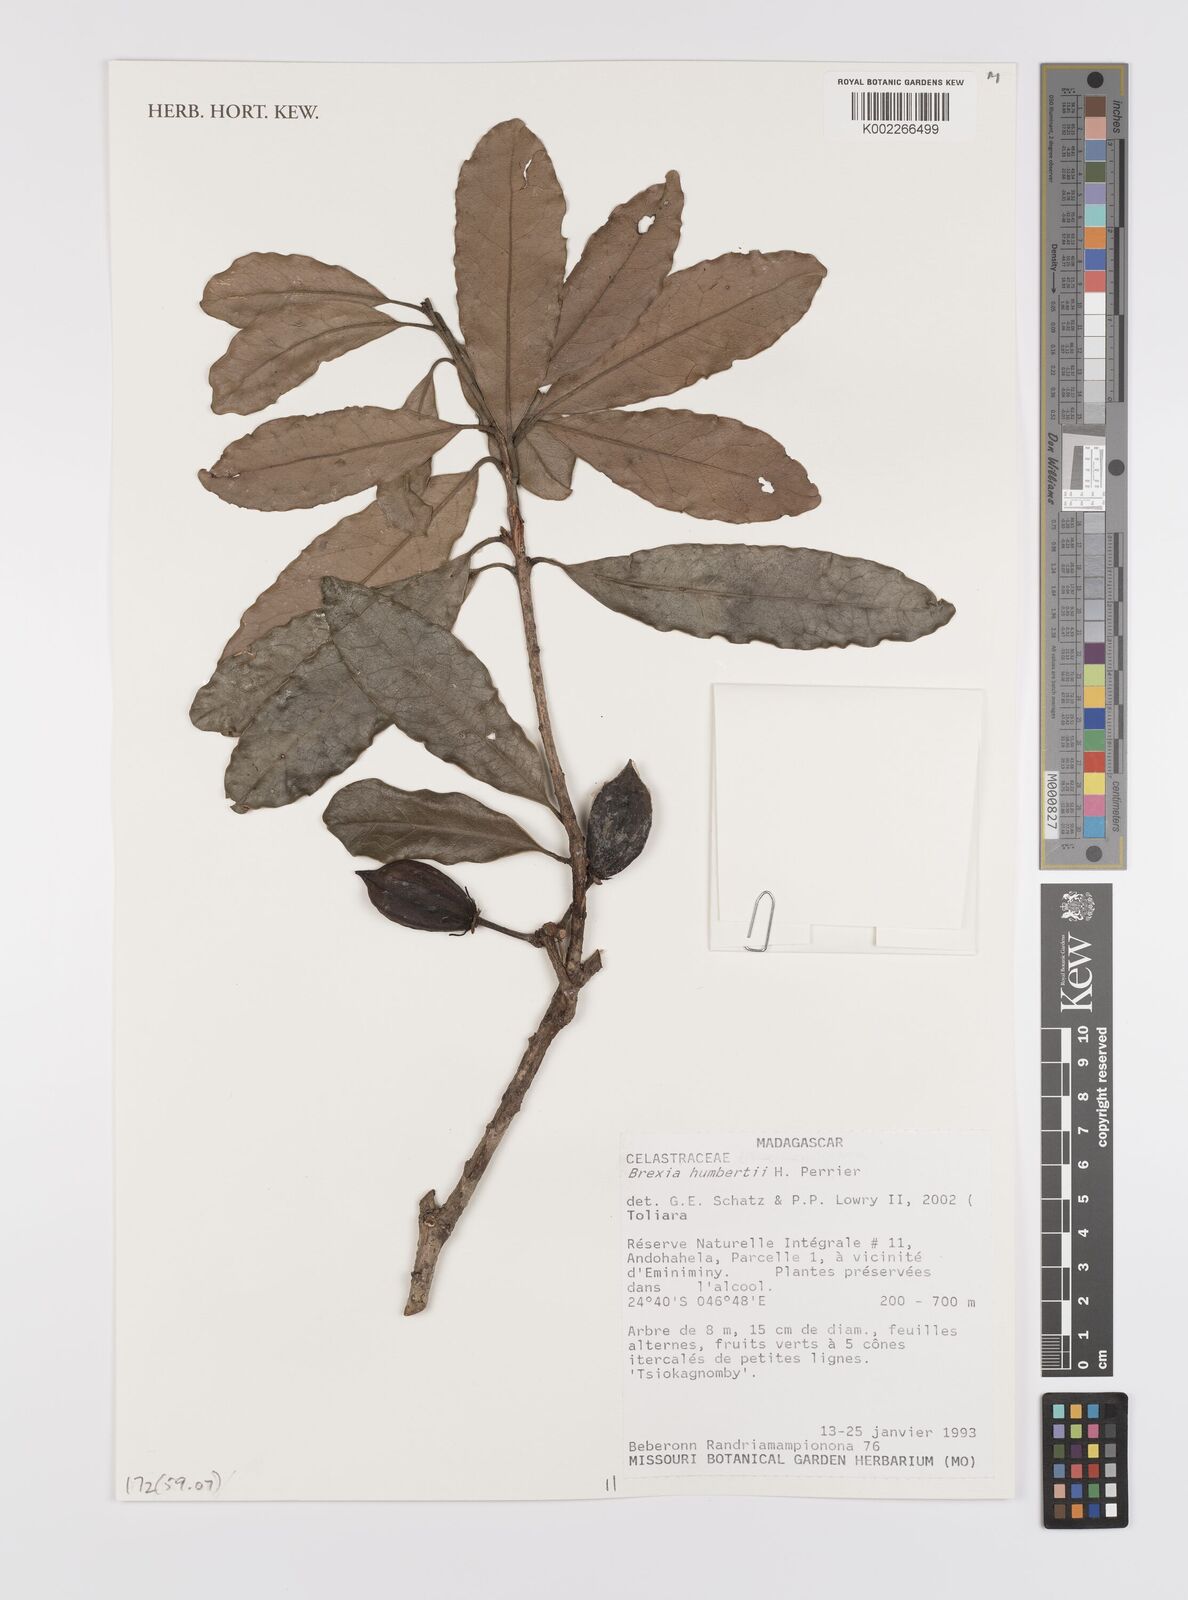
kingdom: Plantae
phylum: Tracheophyta
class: Magnoliopsida
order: Celastrales
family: Celastraceae
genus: Brexia
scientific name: Brexia humbertii
